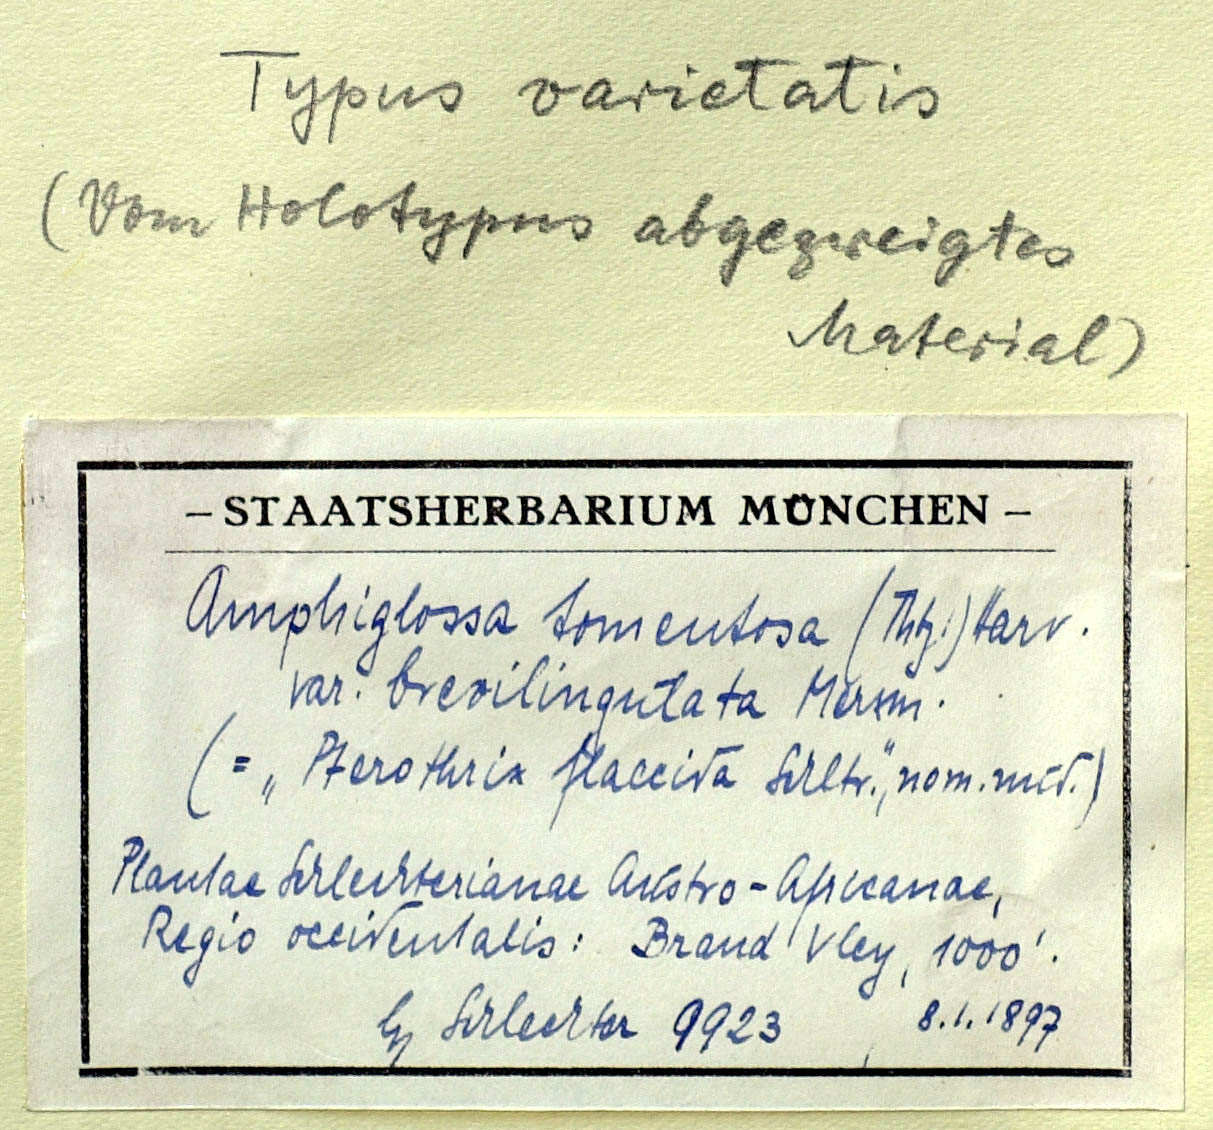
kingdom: Plantae
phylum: Tracheophyta
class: Magnoliopsida
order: Asterales
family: Asteraceae
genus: Amphiglossa
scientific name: Amphiglossa tomentosa
